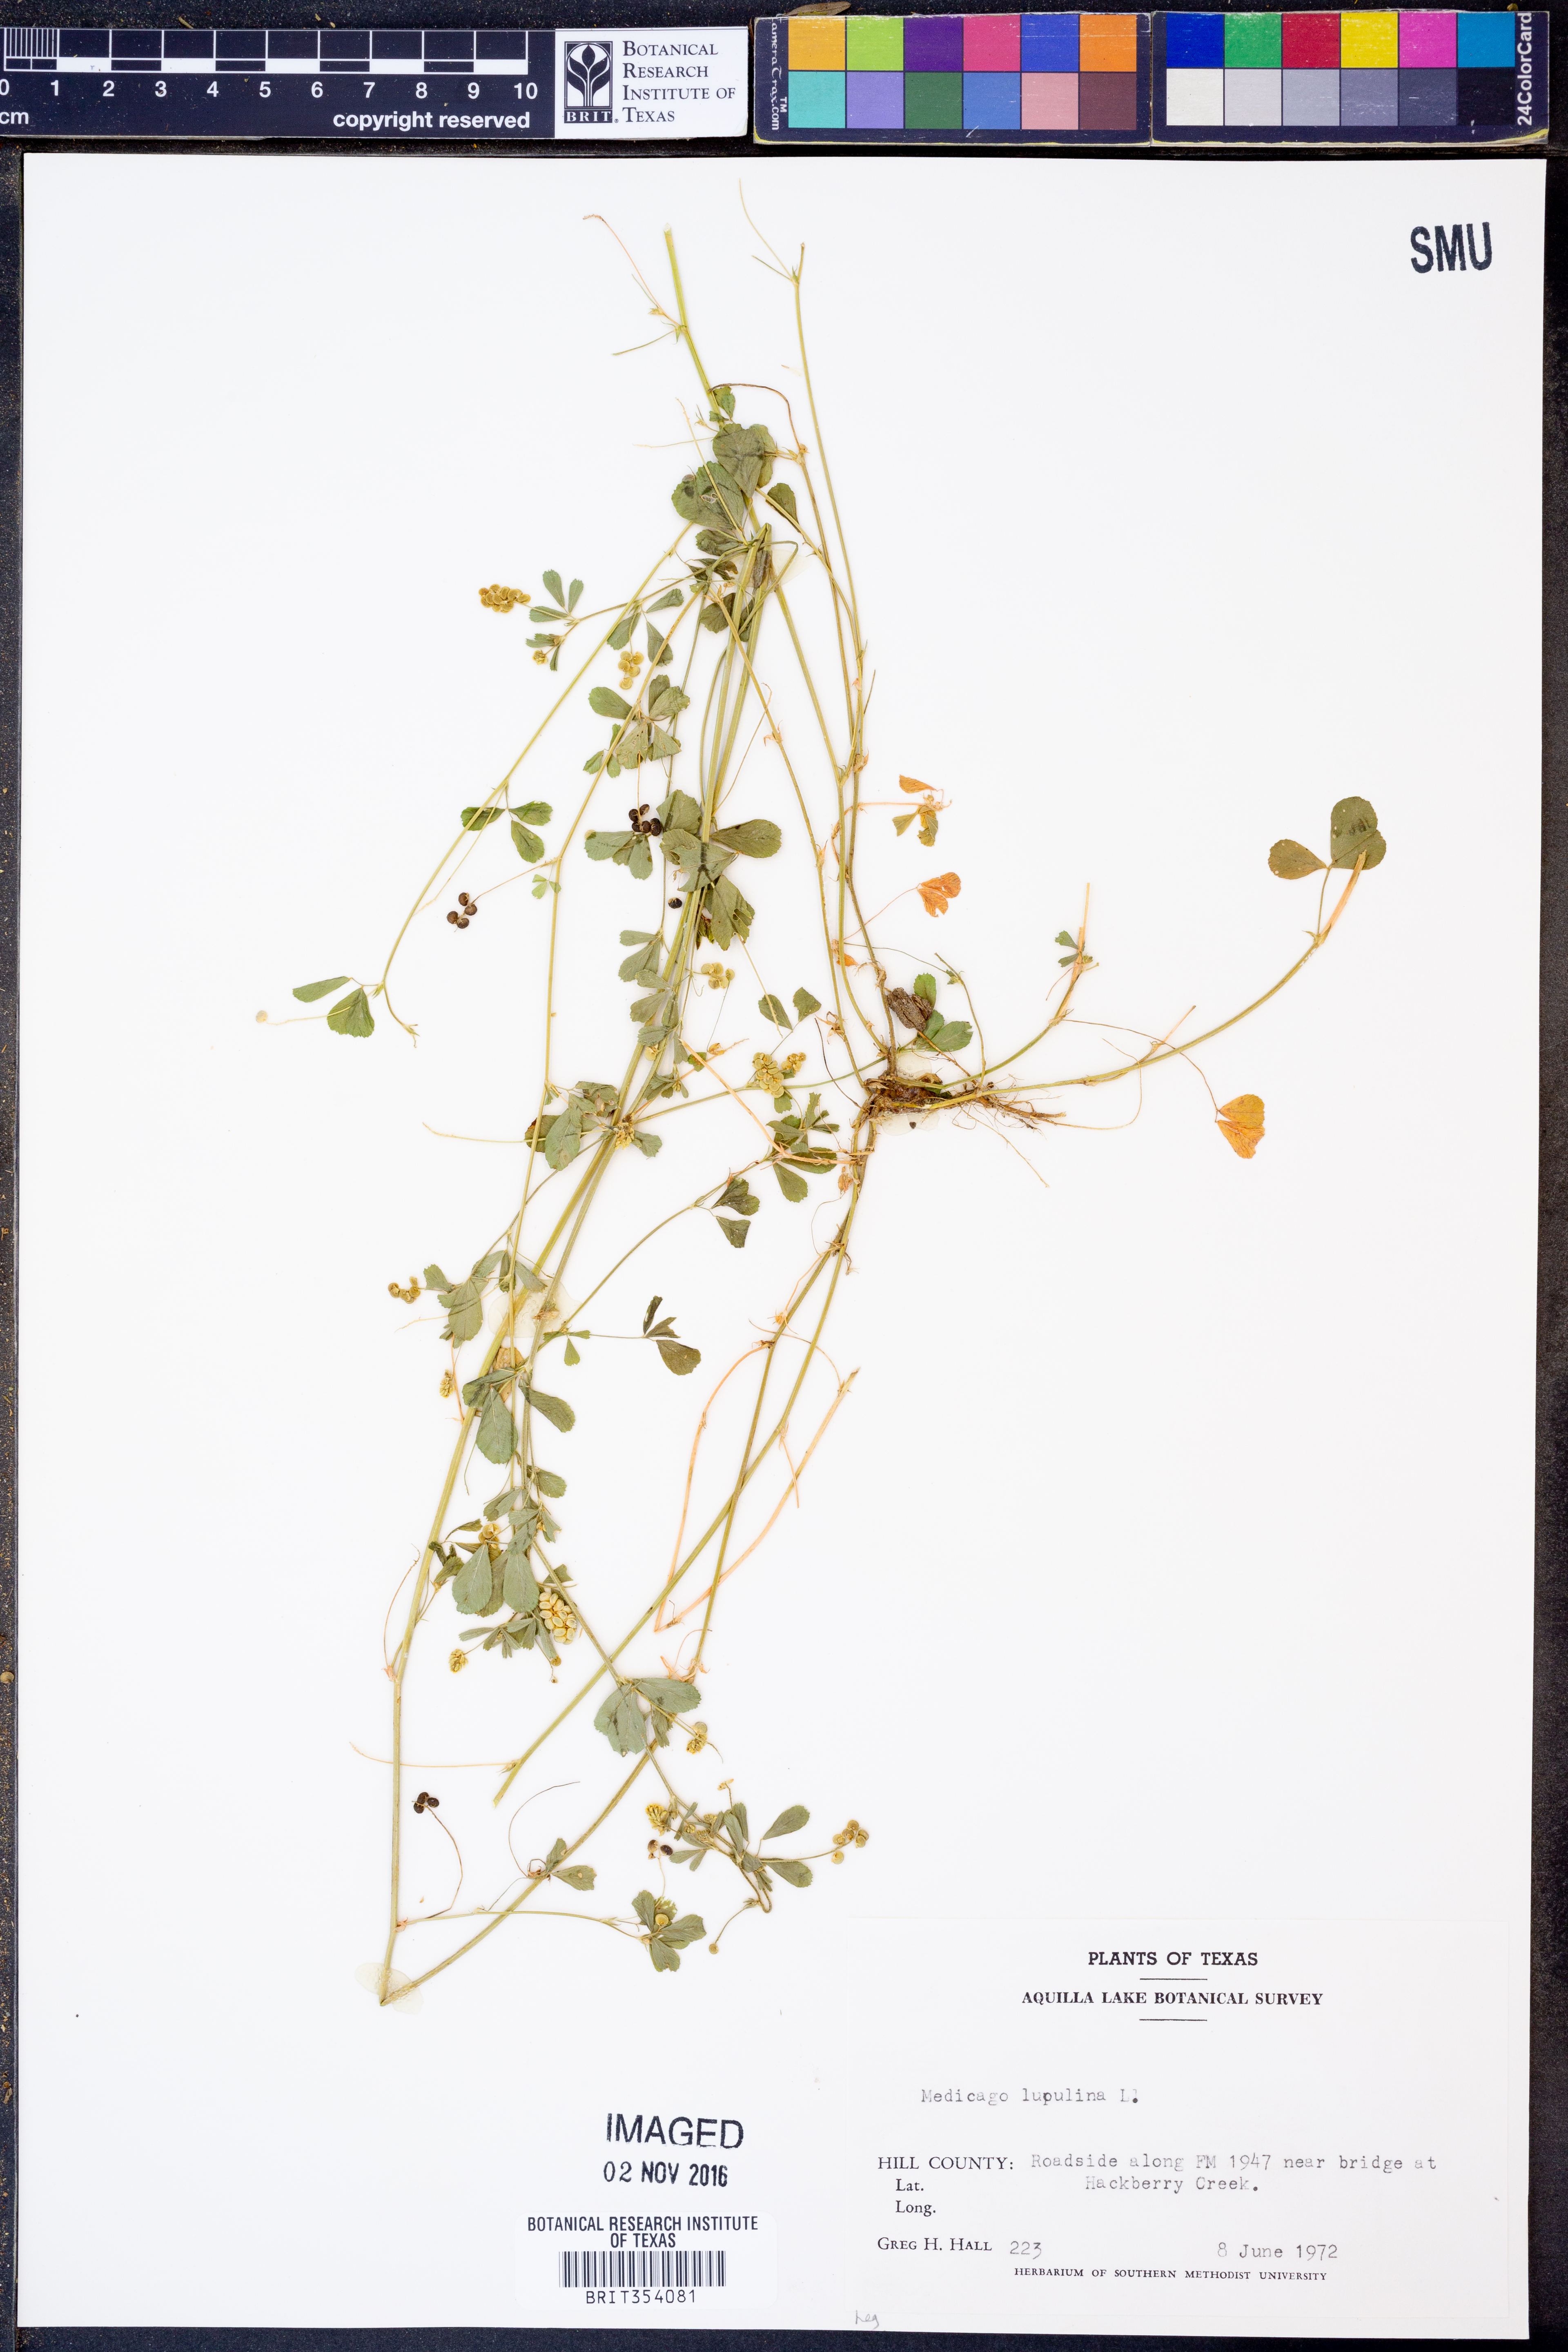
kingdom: Plantae
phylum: Tracheophyta
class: Magnoliopsida
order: Fabales
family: Fabaceae
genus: Medicago
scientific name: Medicago lupulina
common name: Black medick
